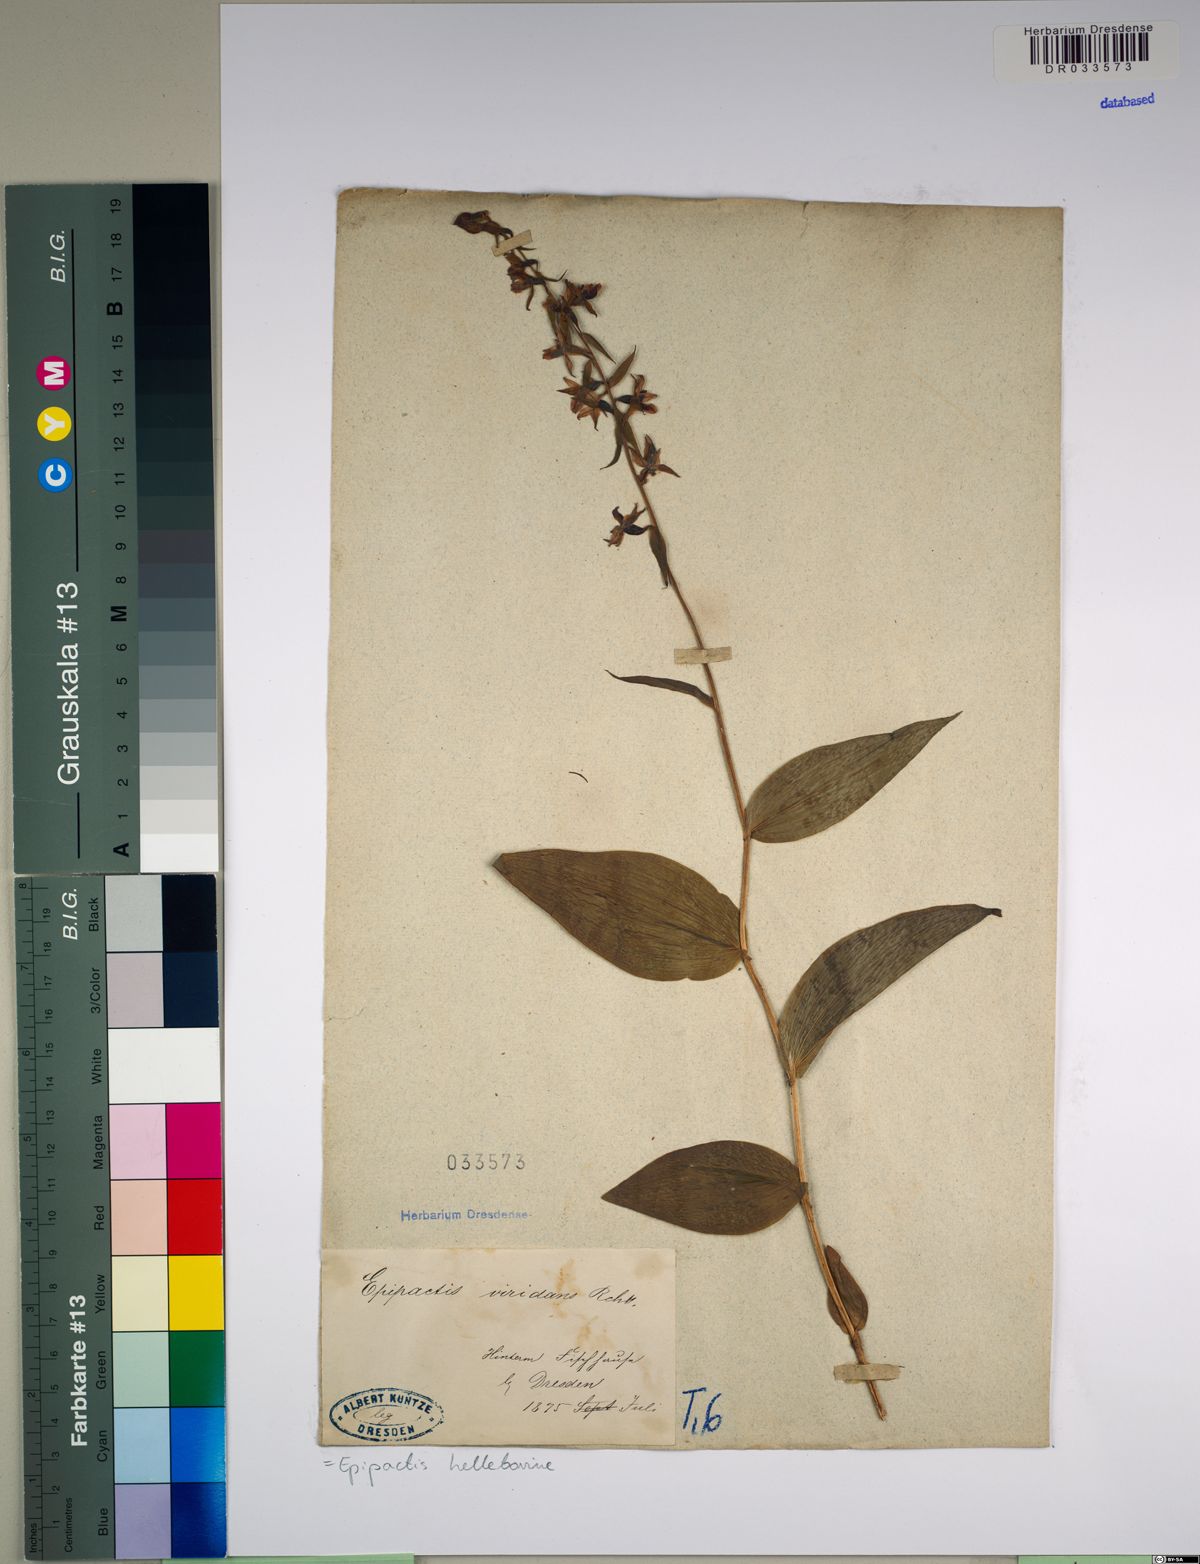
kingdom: Plantae
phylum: Tracheophyta
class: Liliopsida
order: Asparagales
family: Orchidaceae
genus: Epipactis
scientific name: Epipactis helleborine
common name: Broad-leaved helleborine
